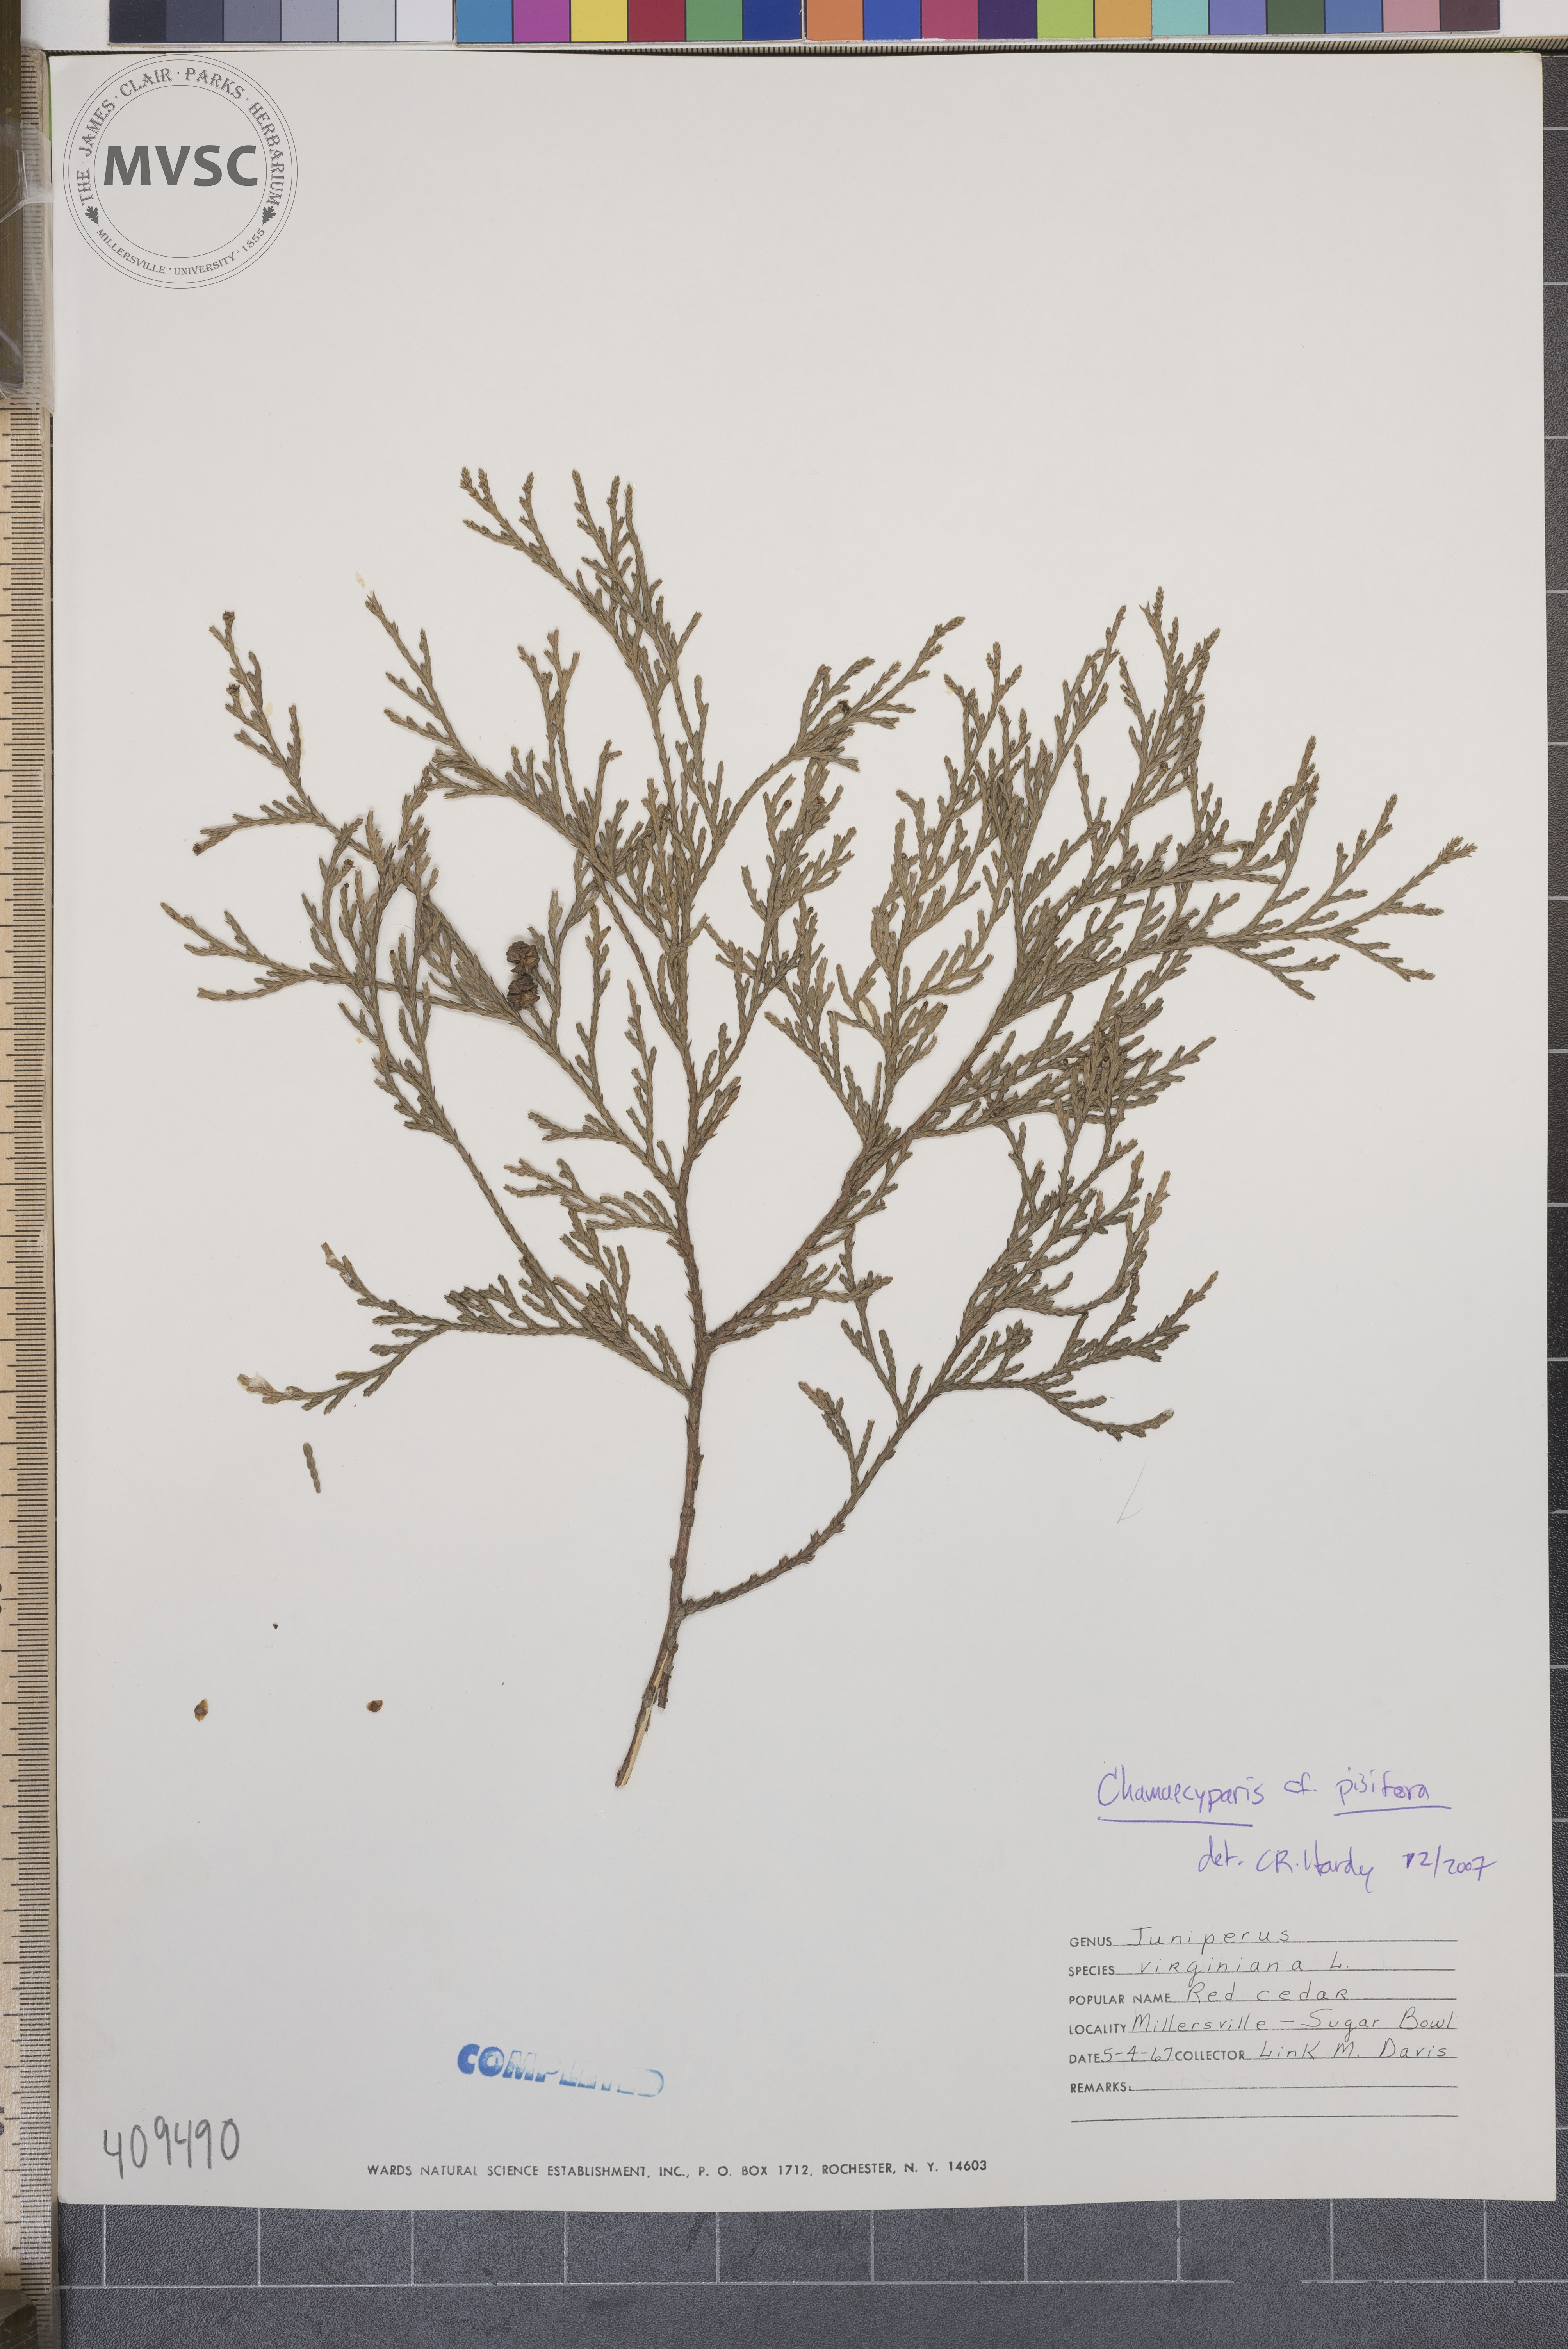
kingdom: Plantae
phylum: Tracheophyta
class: Pinopsida
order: Pinales
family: Cupressaceae
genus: Chamaecyparis
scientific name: Chamaecyparis pisifera
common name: Sawara cypress
